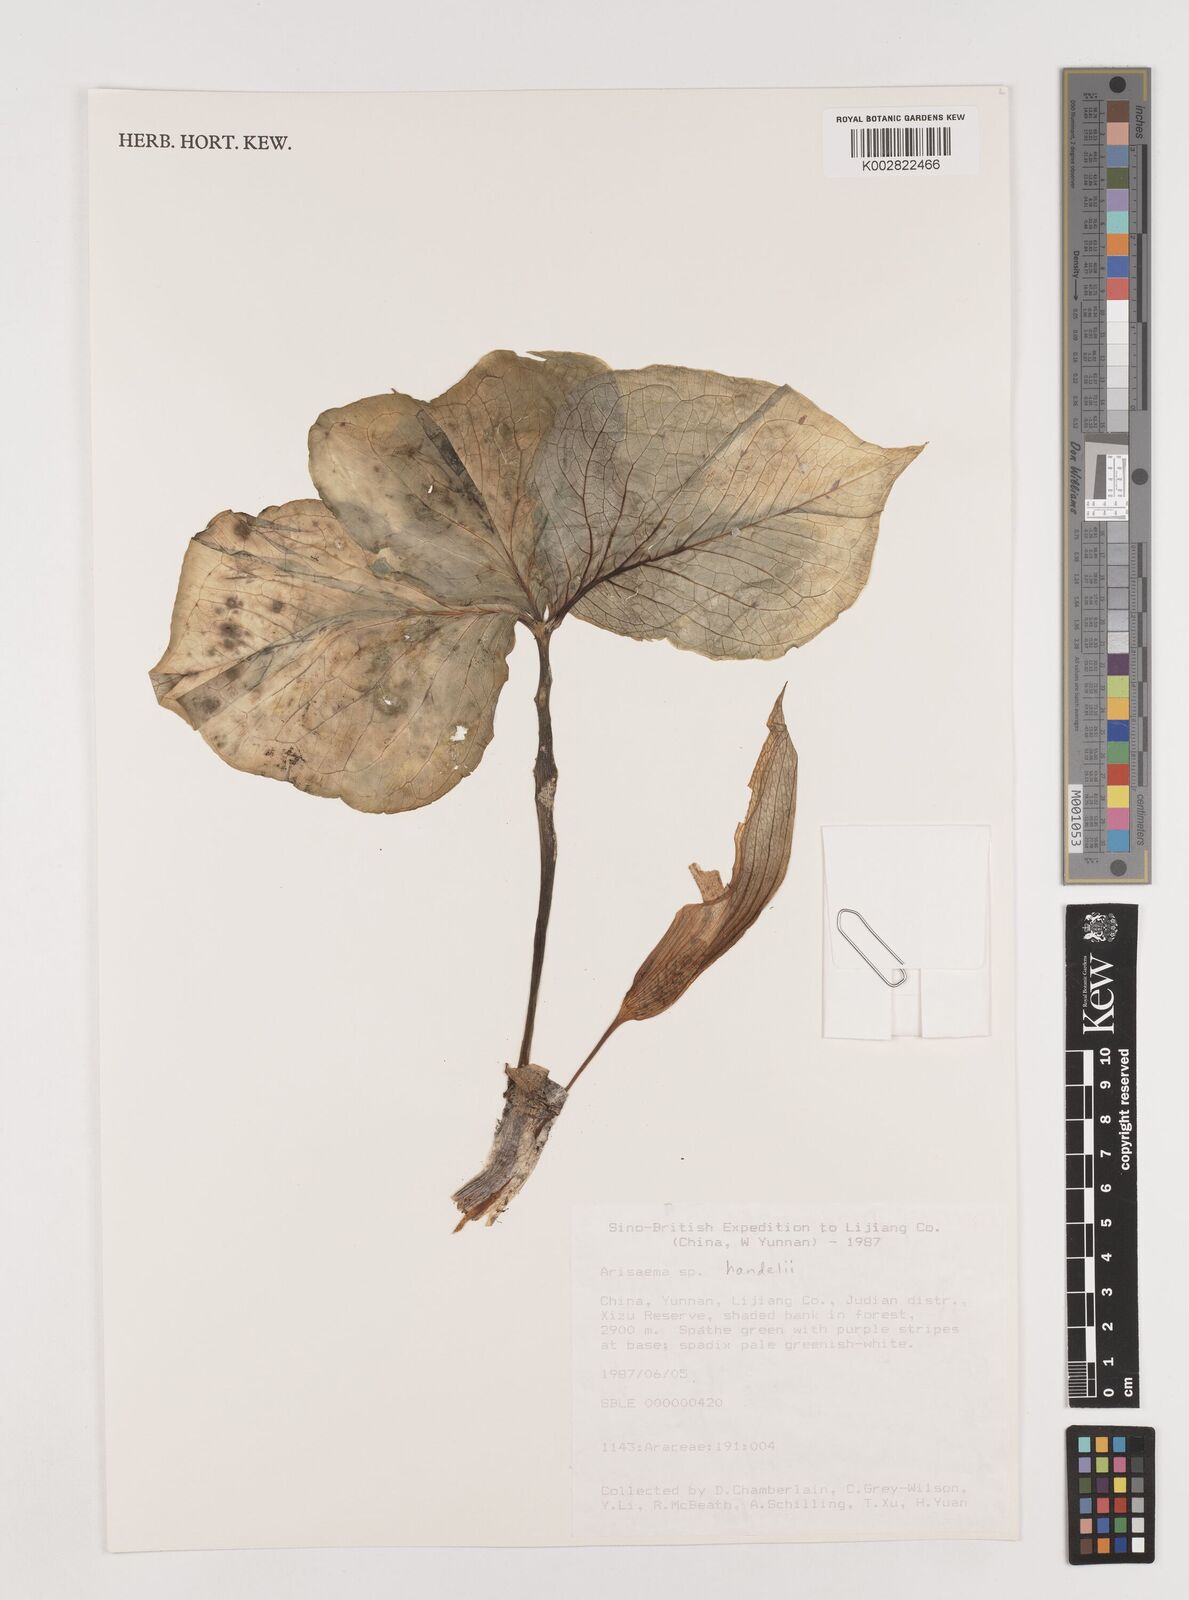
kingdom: Plantae
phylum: Tracheophyta
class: Liliopsida
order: Alismatales
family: Araceae
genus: Arisaema
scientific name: Arisaema handelii
